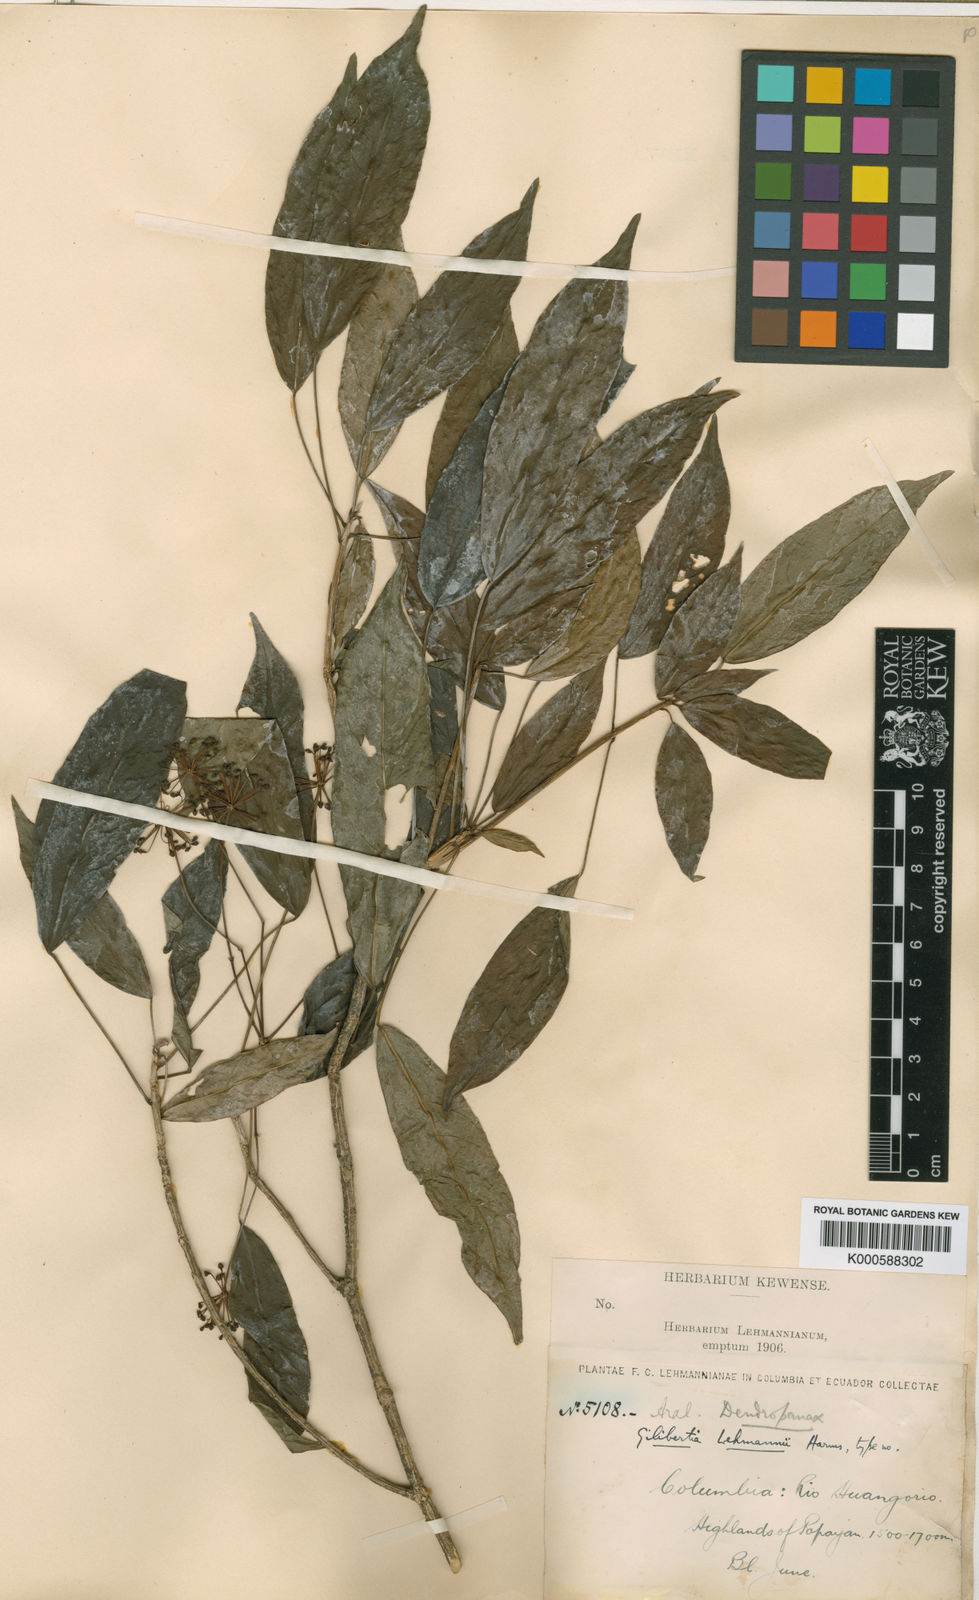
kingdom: Plantae
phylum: Tracheophyta
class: Magnoliopsida
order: Apiales
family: Araliaceae
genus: Dendropanax
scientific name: Dendropanax lehmannii
